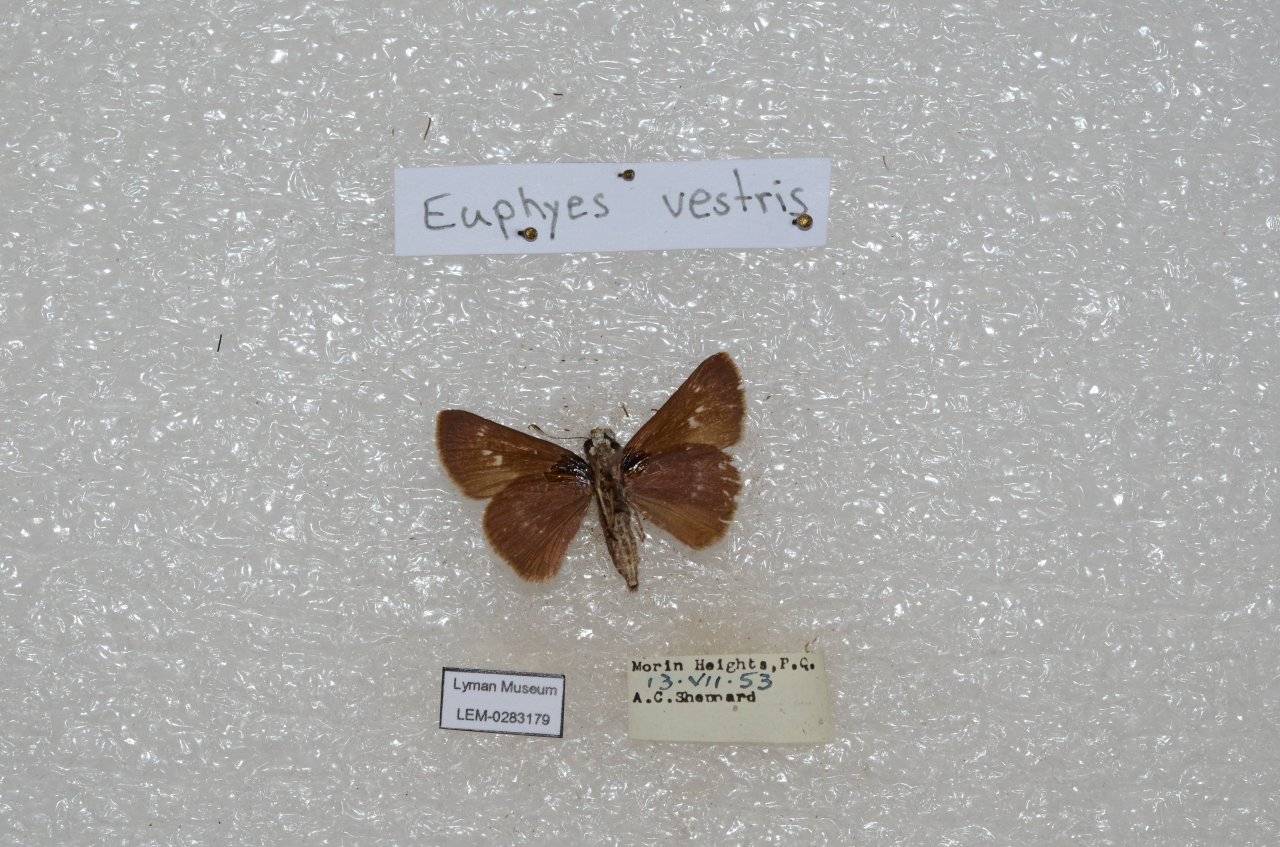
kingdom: Animalia
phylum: Arthropoda
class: Insecta
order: Lepidoptera
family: Hesperiidae
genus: Euphyes
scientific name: Euphyes vestris
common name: Dun Skipper
